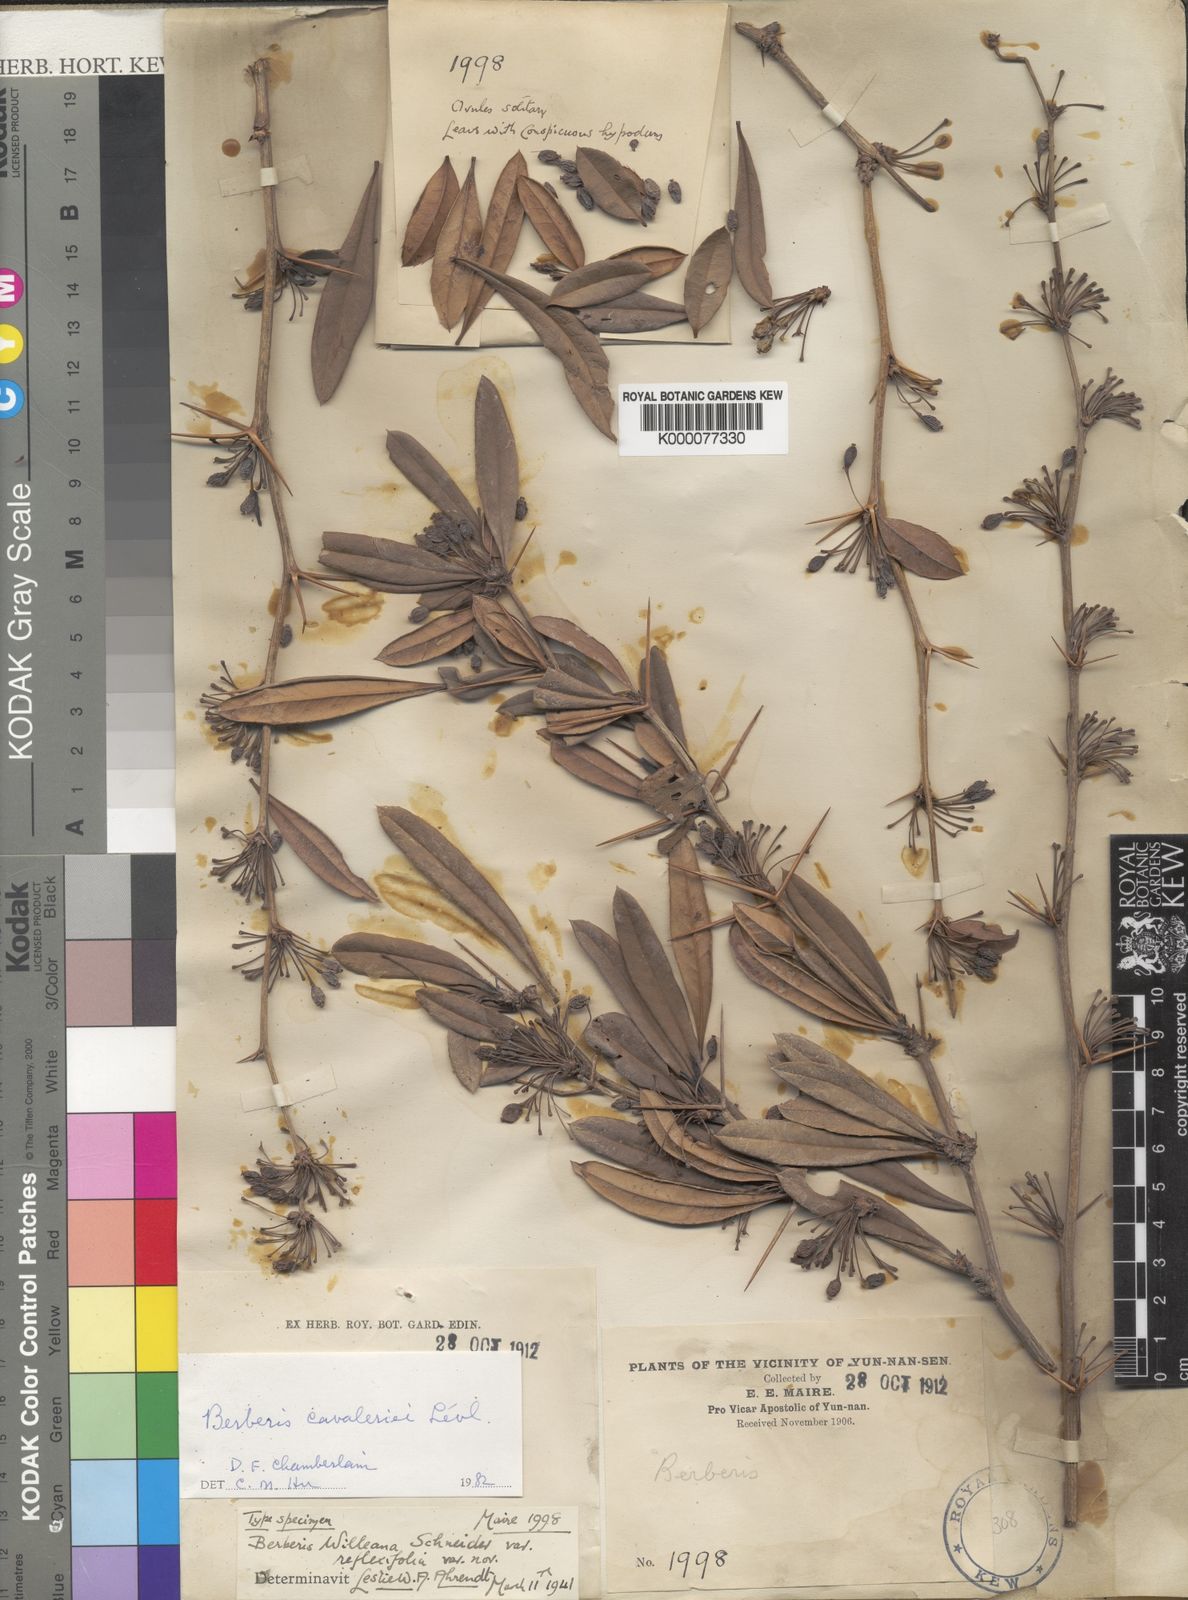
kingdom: Plantae
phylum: Tracheophyta
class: Magnoliopsida
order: Ranunculales
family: Berberidaceae
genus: Berberis
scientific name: Berberis
